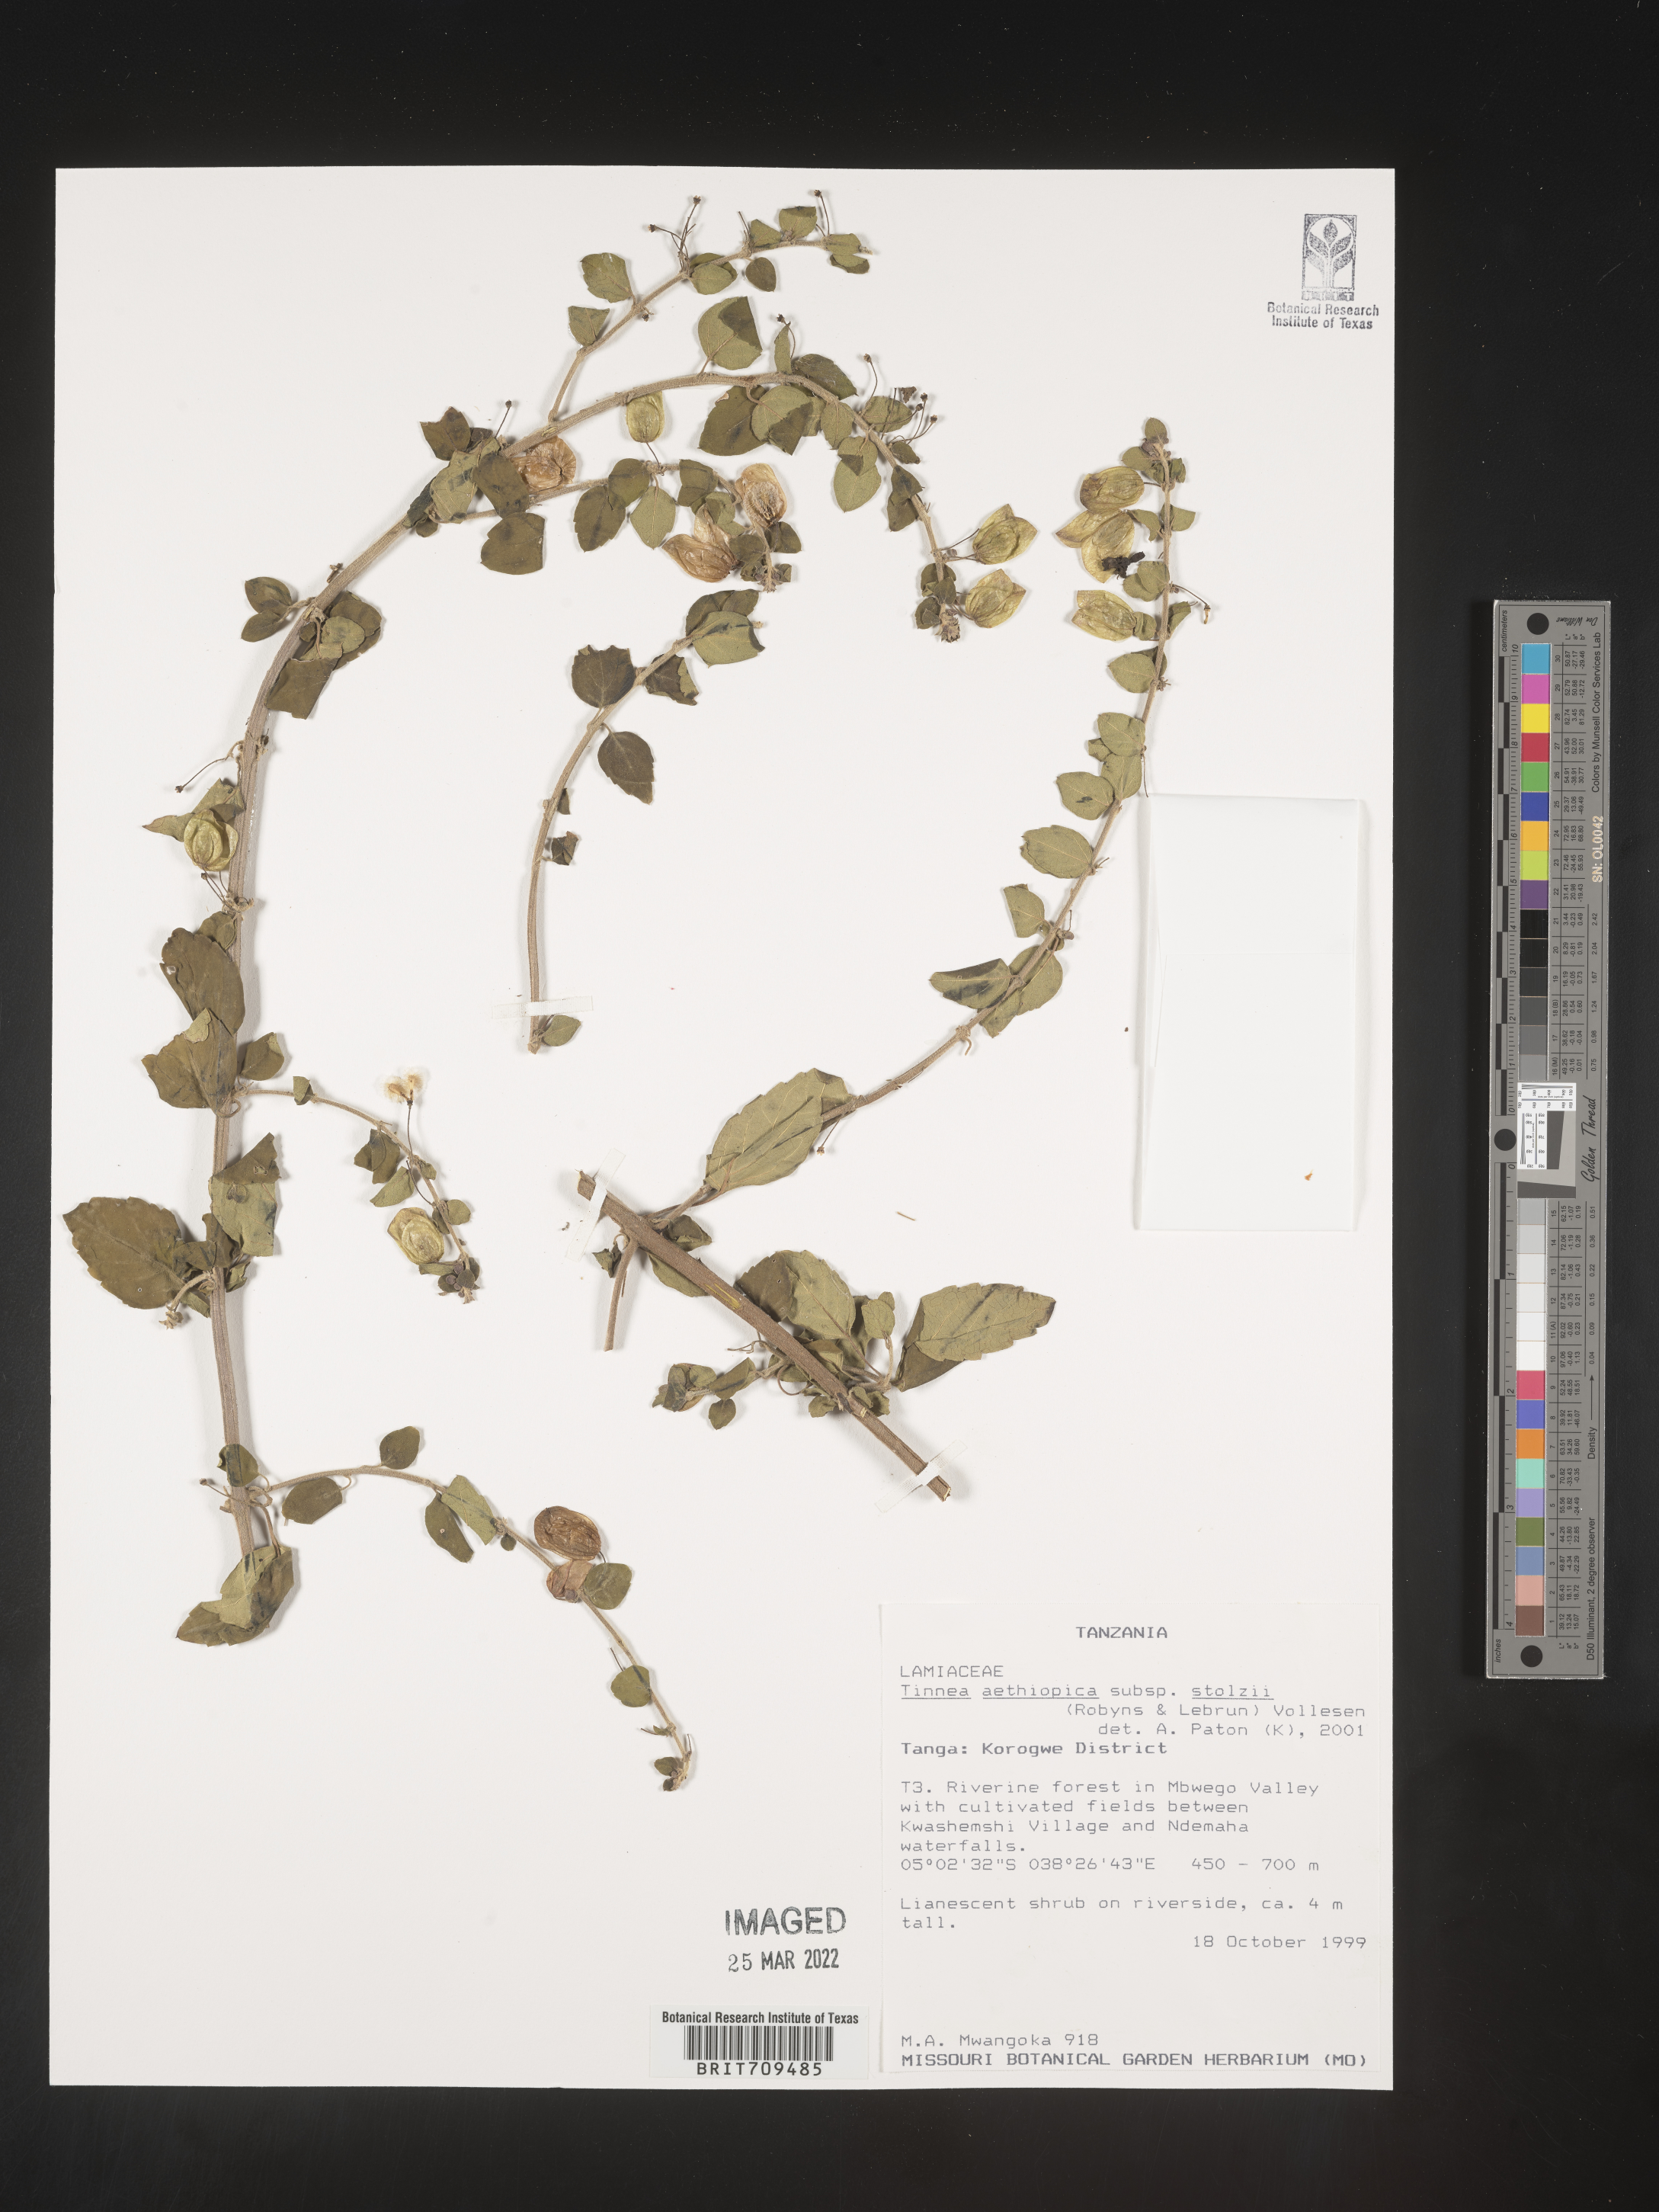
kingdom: Plantae
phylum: Tracheophyta
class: Magnoliopsida
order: Lamiales
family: Lamiaceae
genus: Tinnea
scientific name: Tinnea
